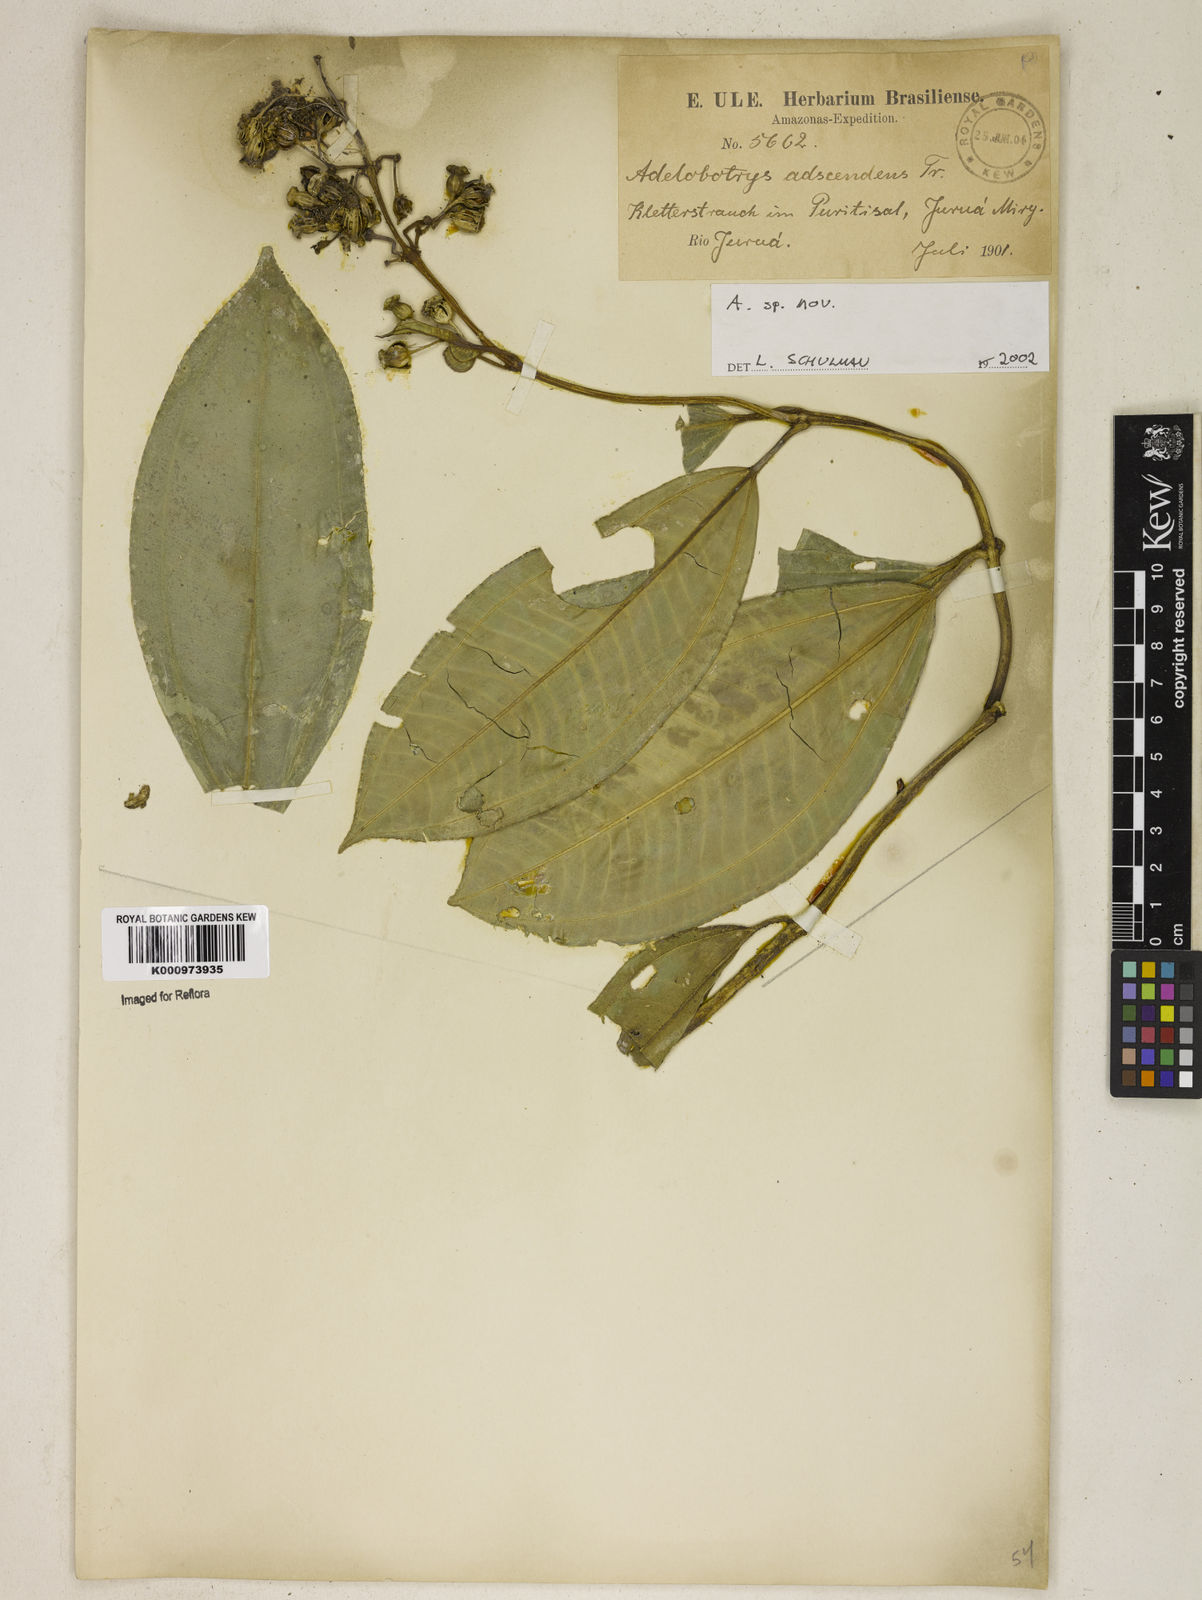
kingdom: Plantae
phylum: Tracheophyta
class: Magnoliopsida
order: Myrtales
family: Melastomataceae
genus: Adelobotrys
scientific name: Adelobotrys
